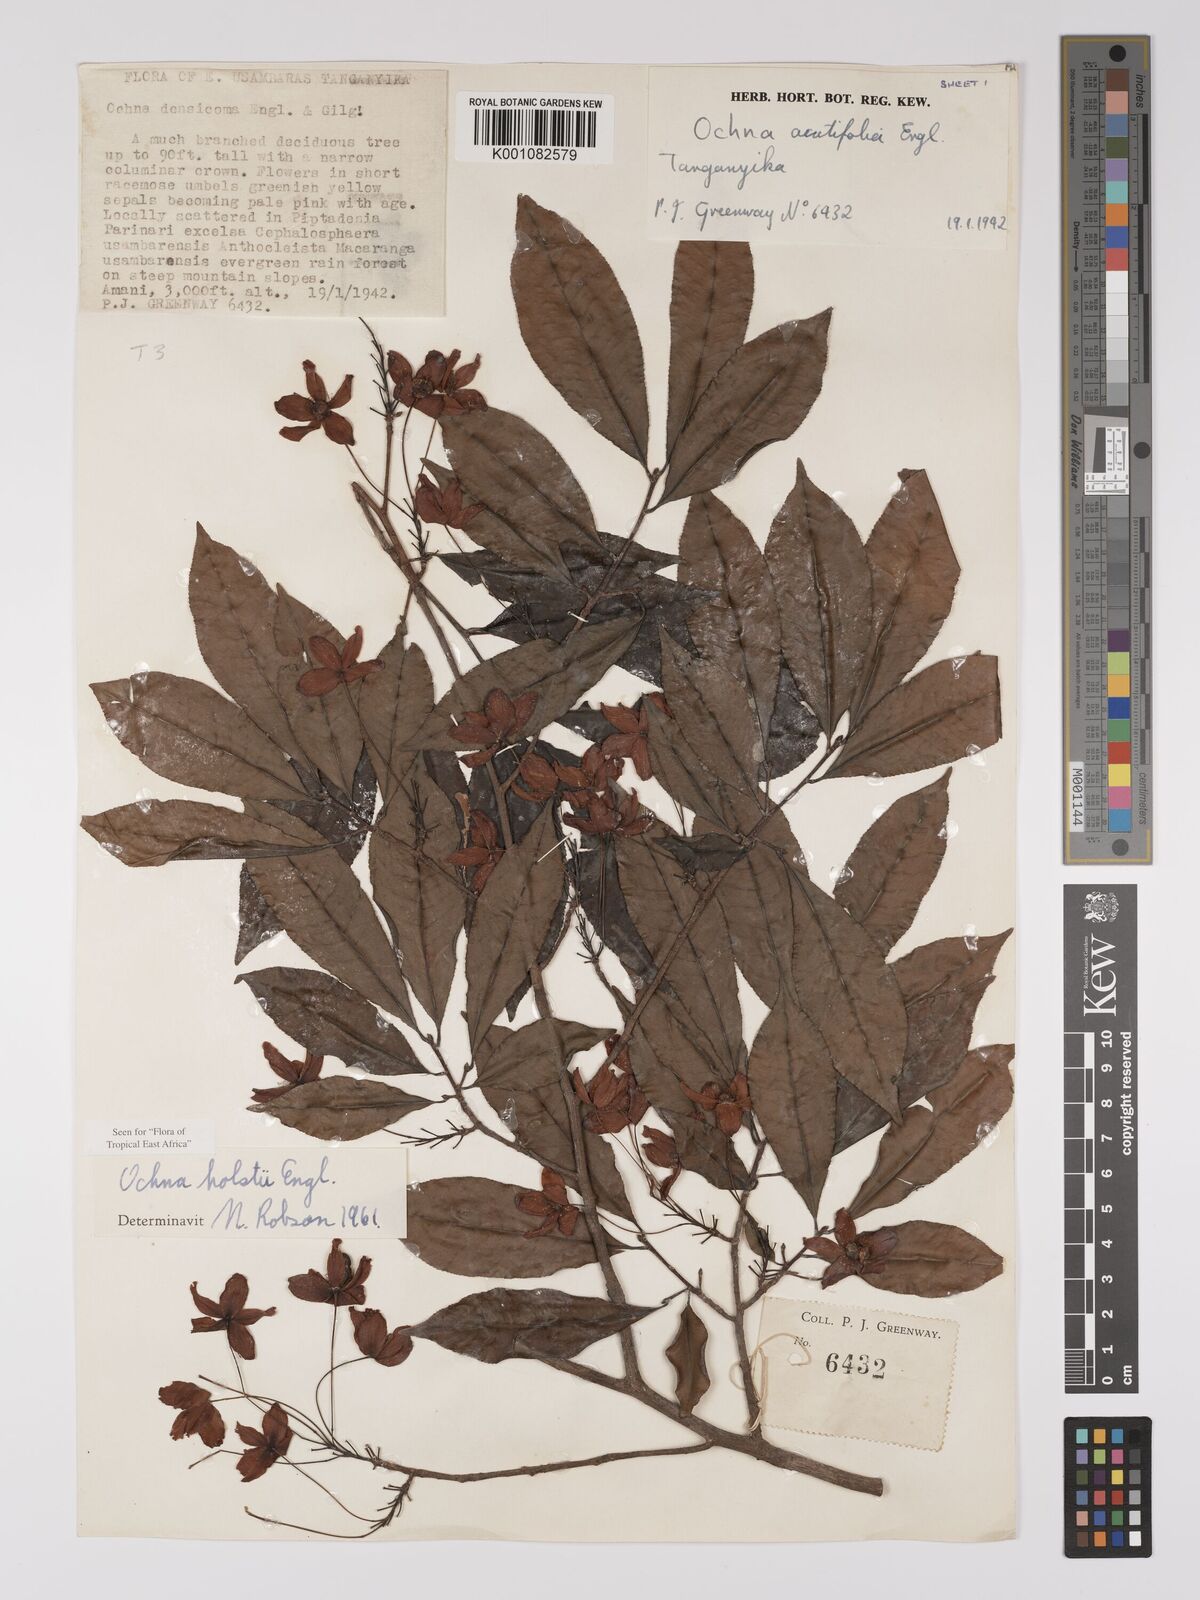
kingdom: Plantae
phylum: Tracheophyta
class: Magnoliopsida
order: Malpighiales
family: Ochnaceae
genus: Ochna
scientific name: Ochna holstii
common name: Red ironwood
